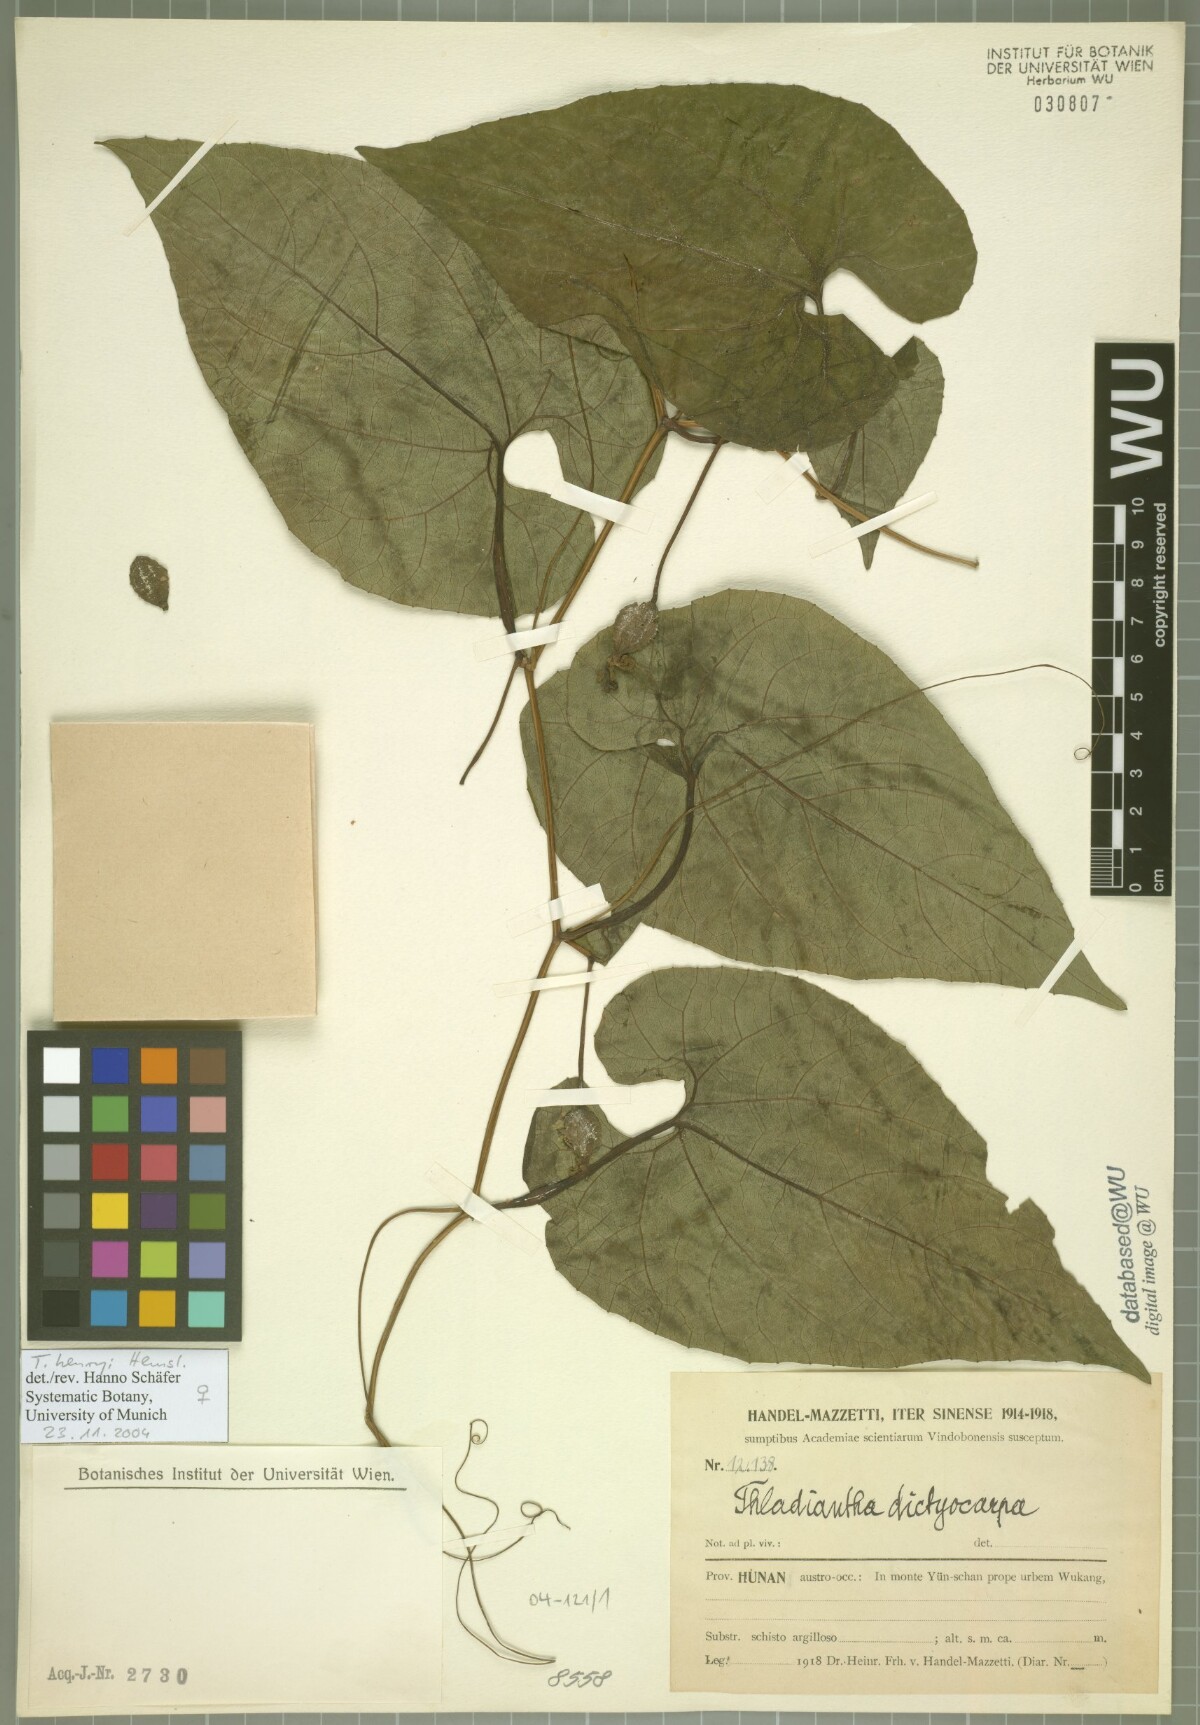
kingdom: Plantae
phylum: Tracheophyta
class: Magnoliopsida
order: Cucurbitales
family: Cucurbitaceae
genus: Thladiantha
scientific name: Thladiantha henryi
